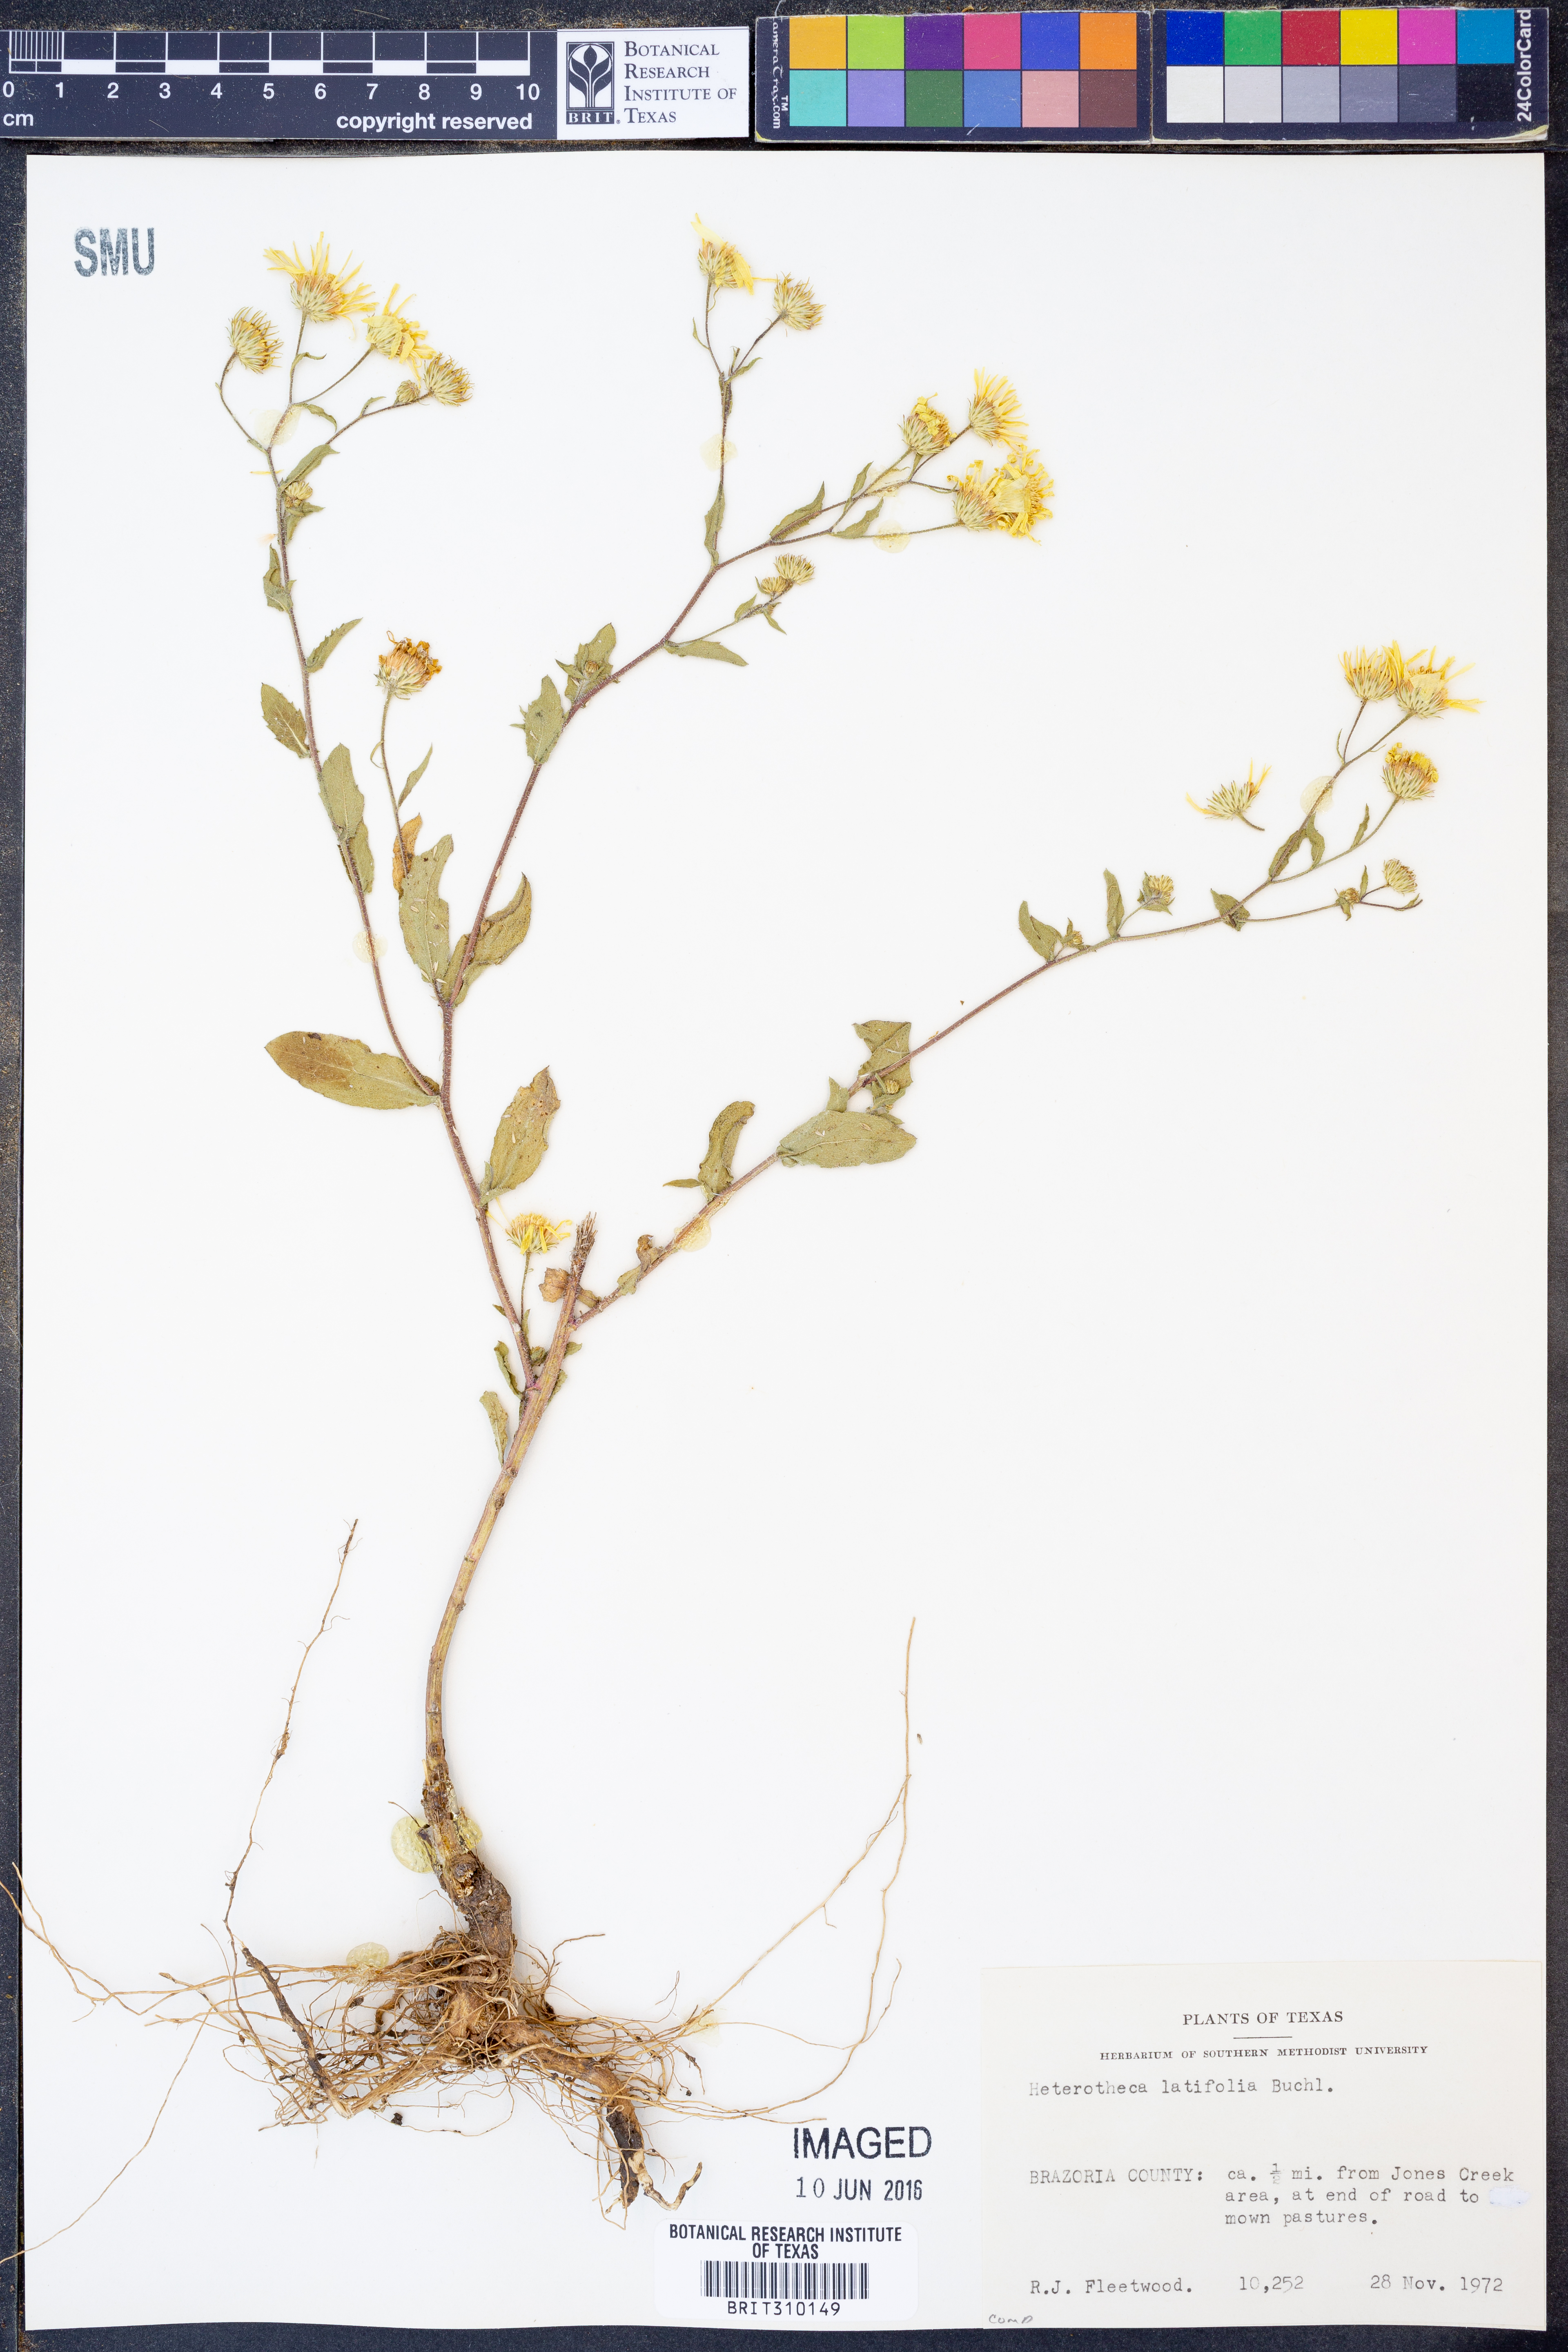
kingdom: Plantae
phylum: Tracheophyta
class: Magnoliopsida
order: Asterales
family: Asteraceae
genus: Heterotheca
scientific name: Heterotheca subaxillaris
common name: Camphorweed
